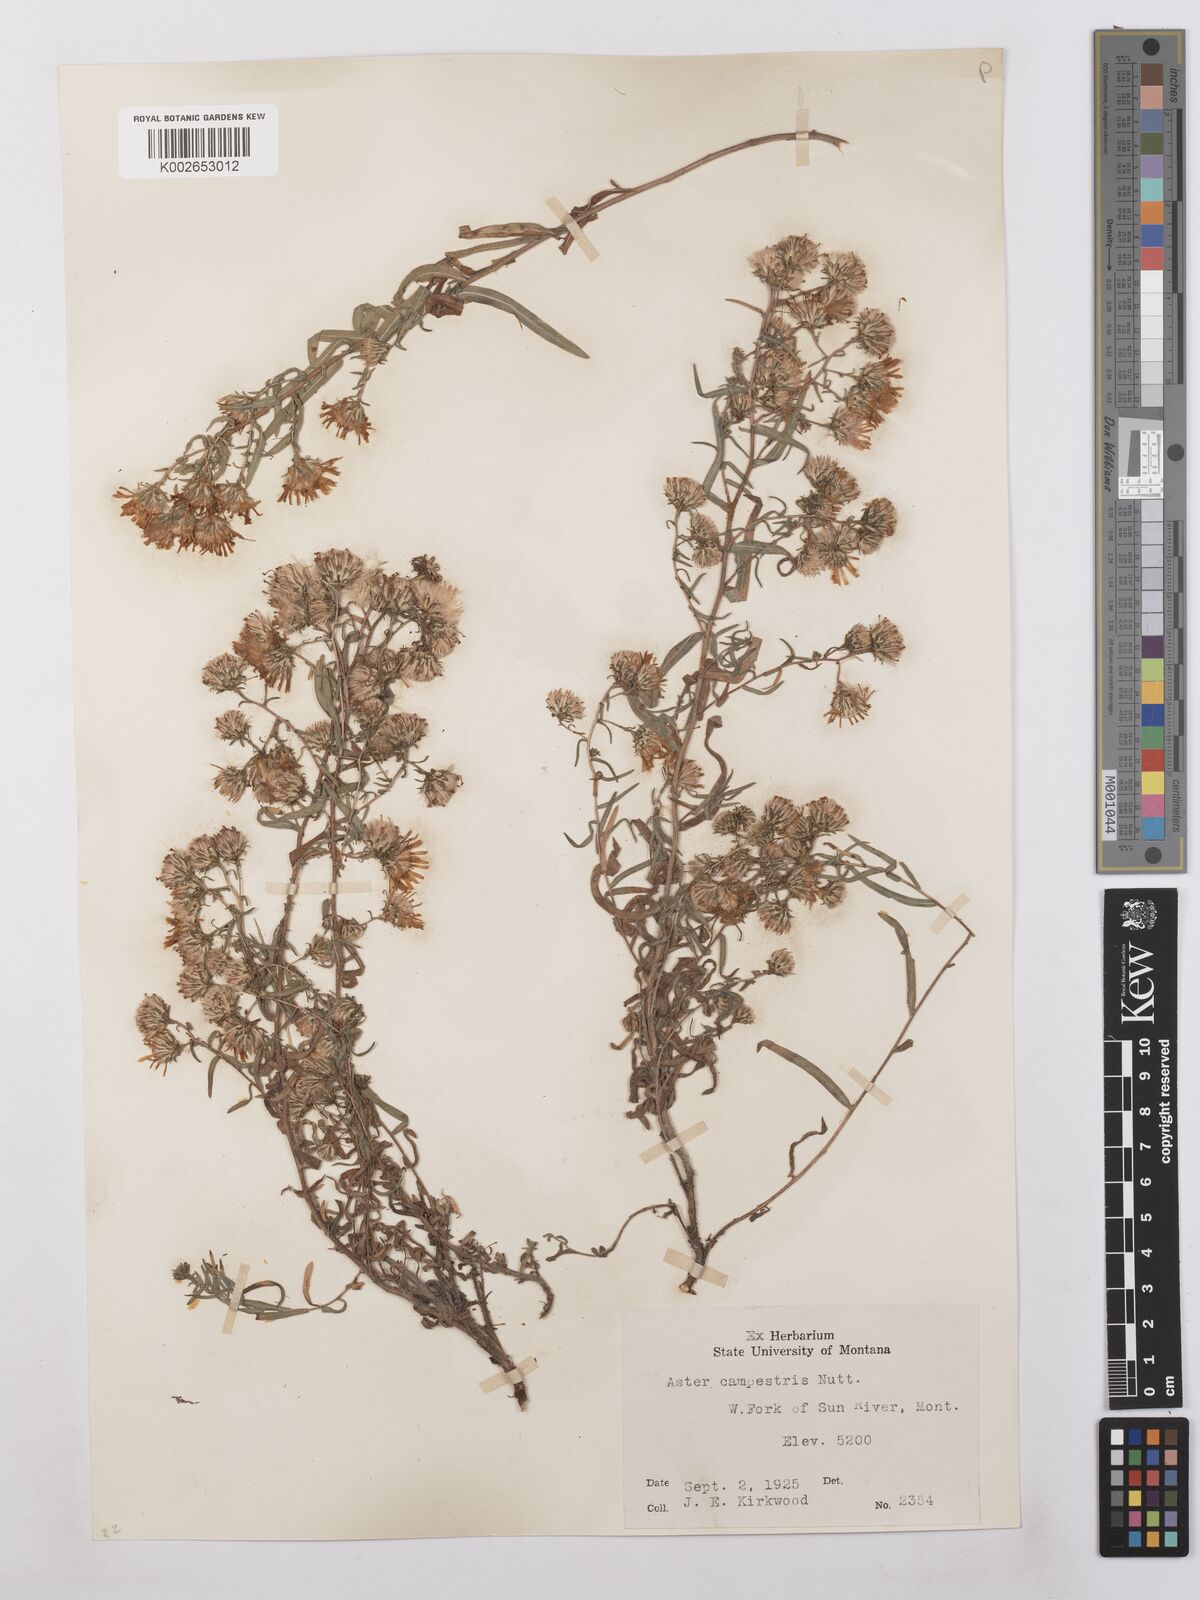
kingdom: Plantae
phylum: Tracheophyta
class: Magnoliopsida
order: Asterales
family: Asteraceae
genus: Symphyotrichum
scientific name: Symphyotrichum campestre
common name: Meadow aster
